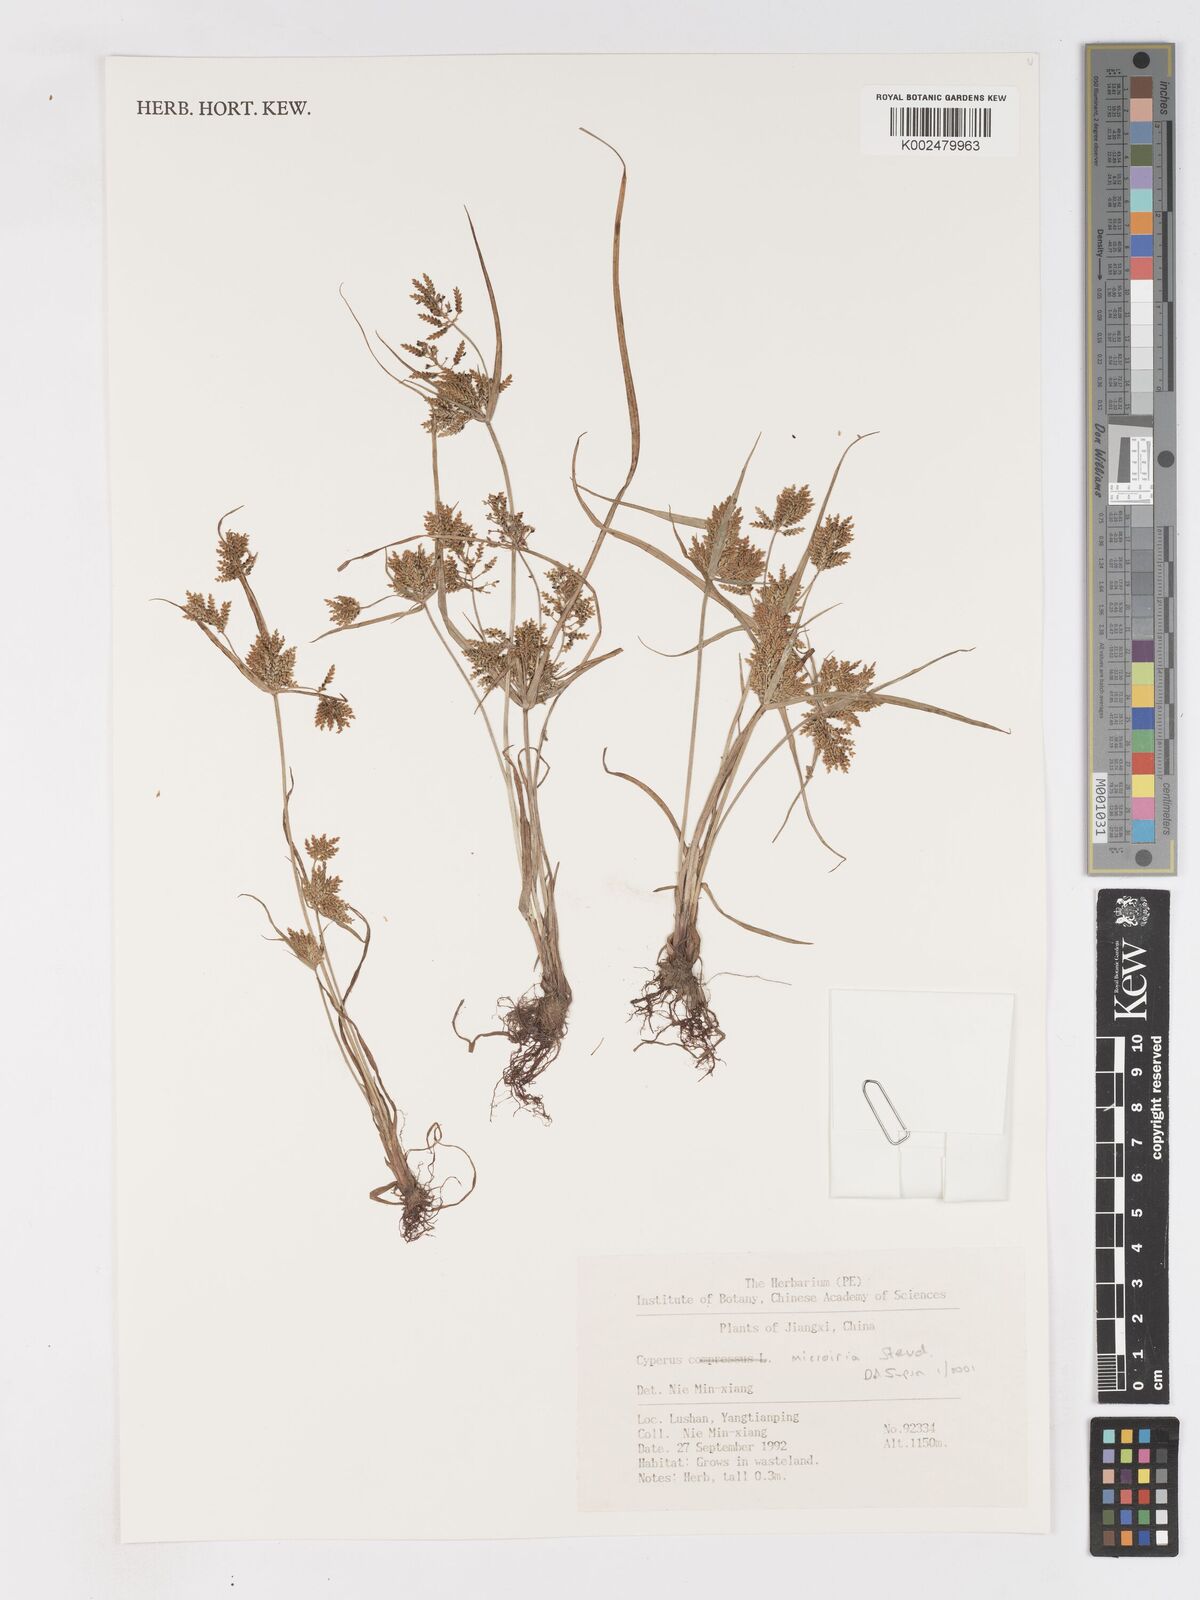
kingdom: Plantae
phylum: Tracheophyta
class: Liliopsida
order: Poales
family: Cyperaceae
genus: Cyperus
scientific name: Cyperus microiria
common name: Asian flatsedge
